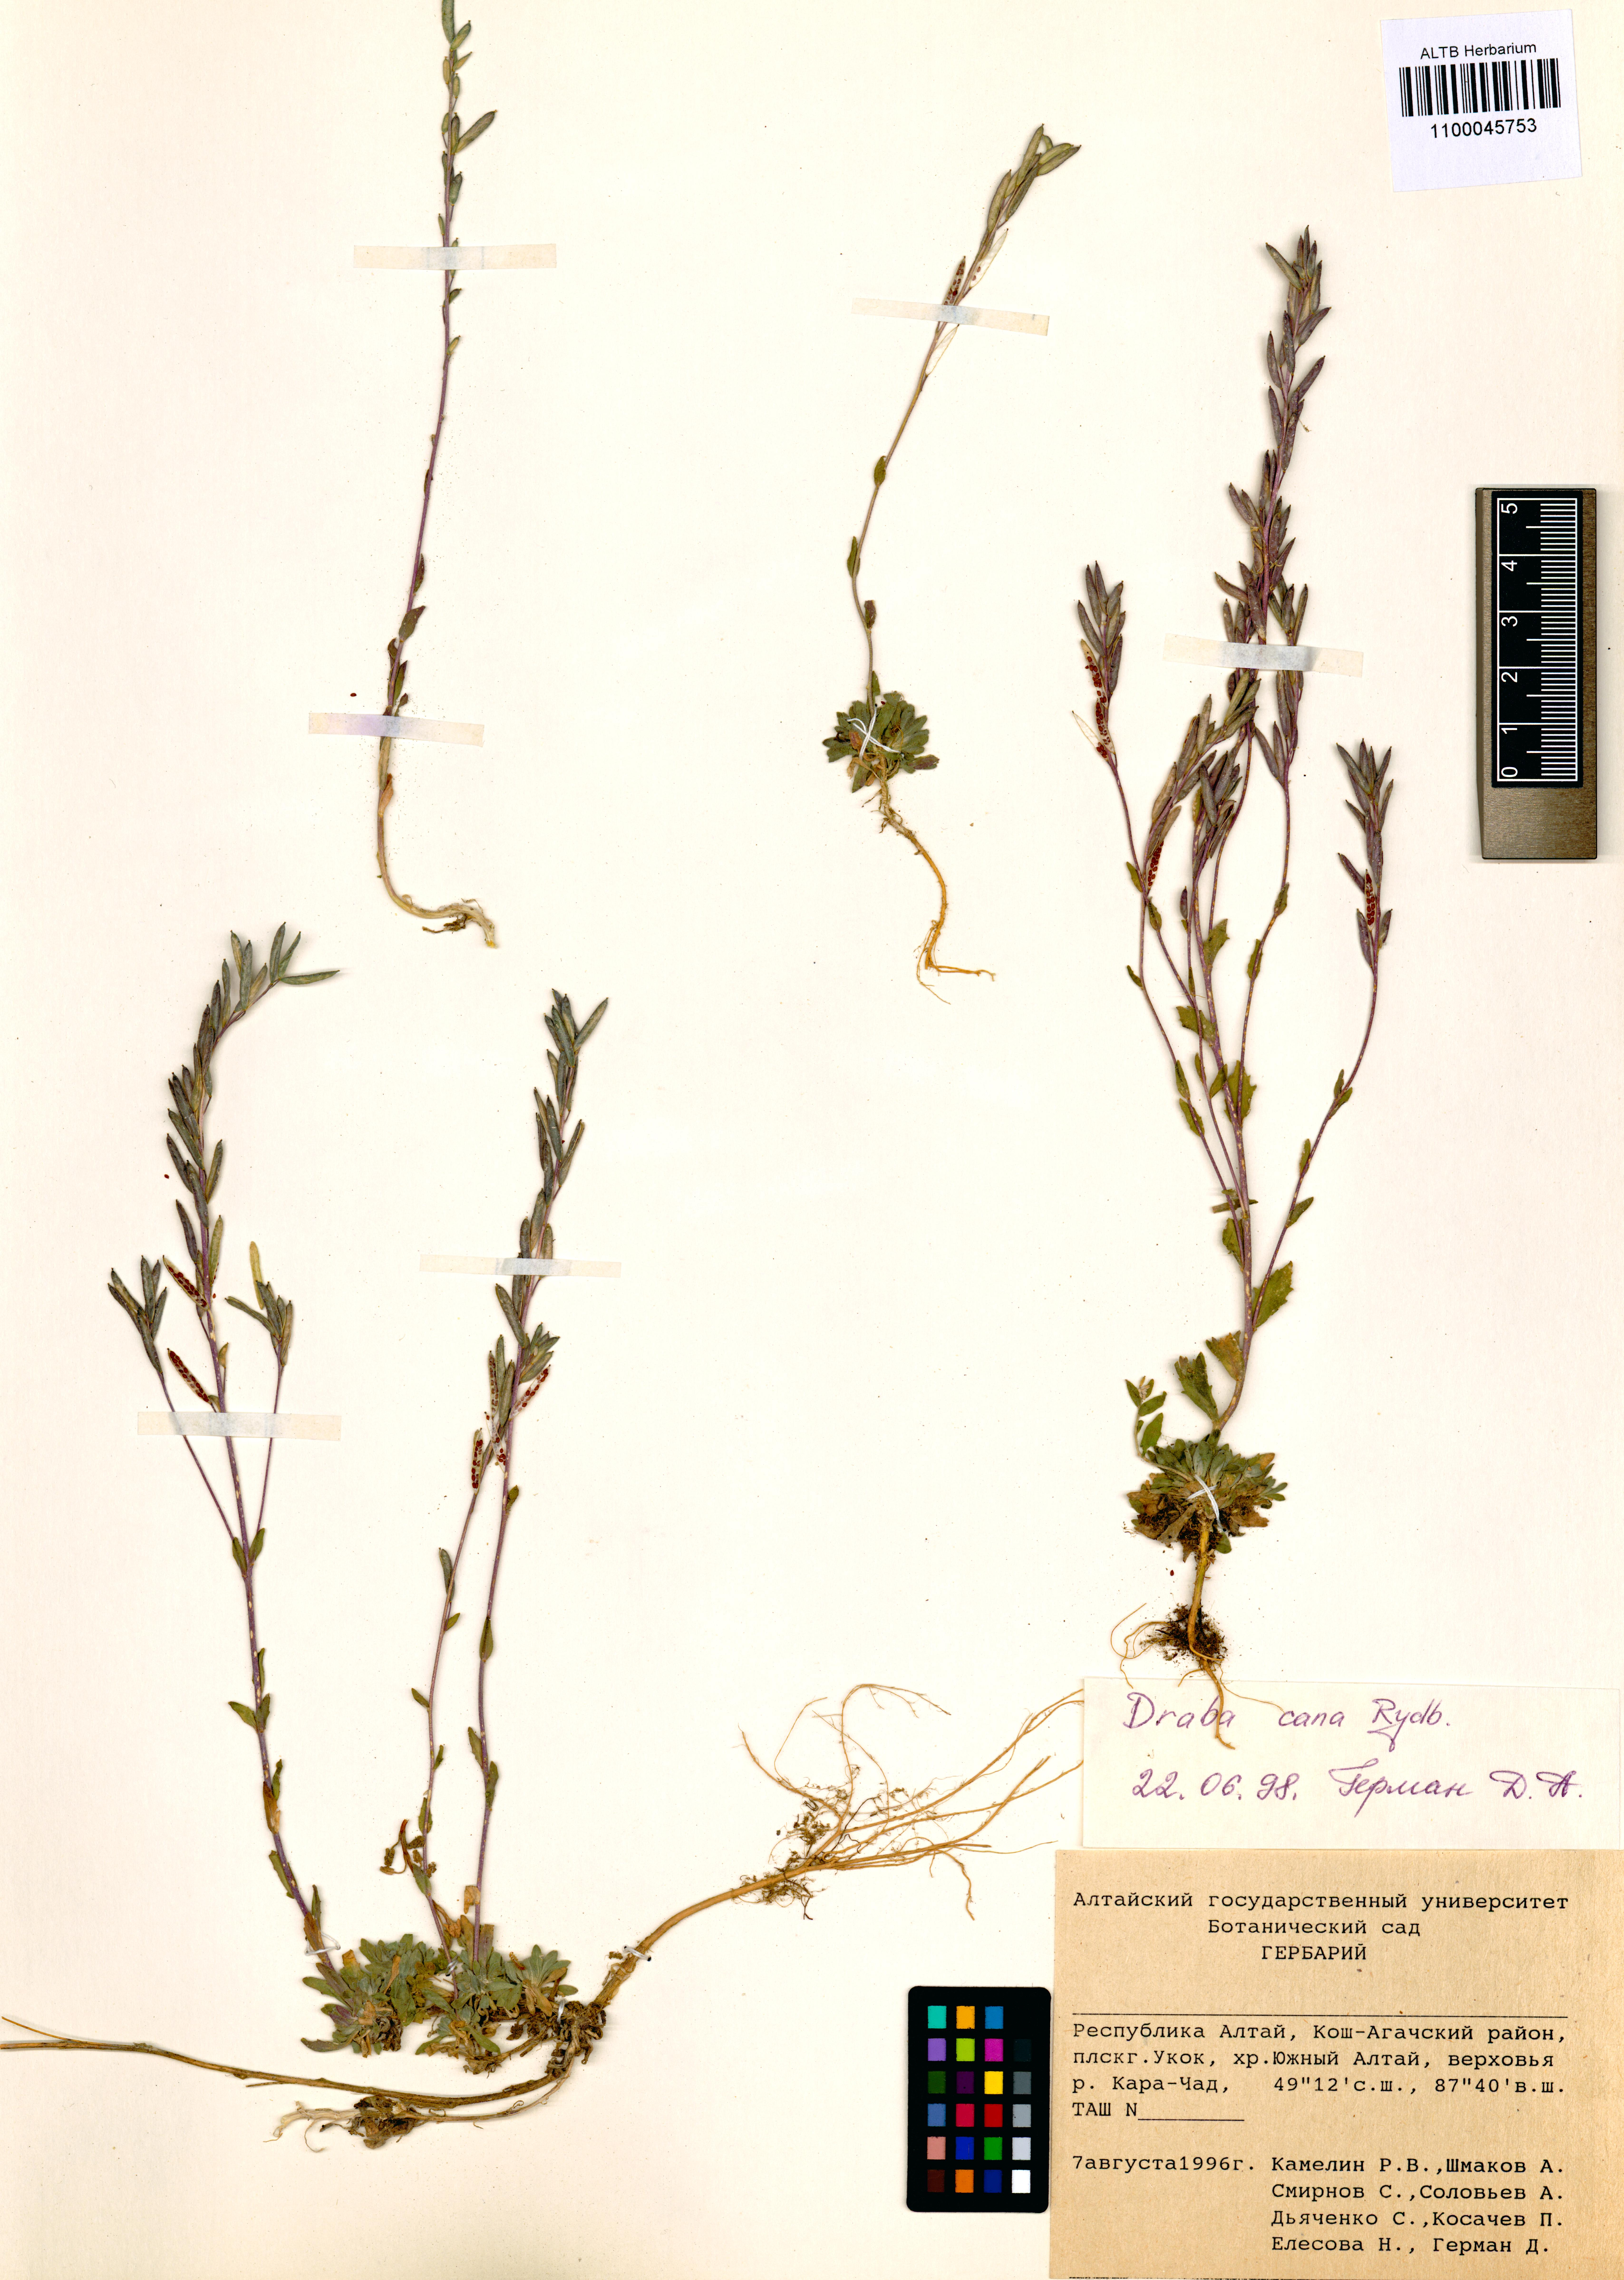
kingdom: Plantae
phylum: Tracheophyta
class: Magnoliopsida
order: Brassicales
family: Brassicaceae
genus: Draba
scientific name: Draba cana
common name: Hoary draba
